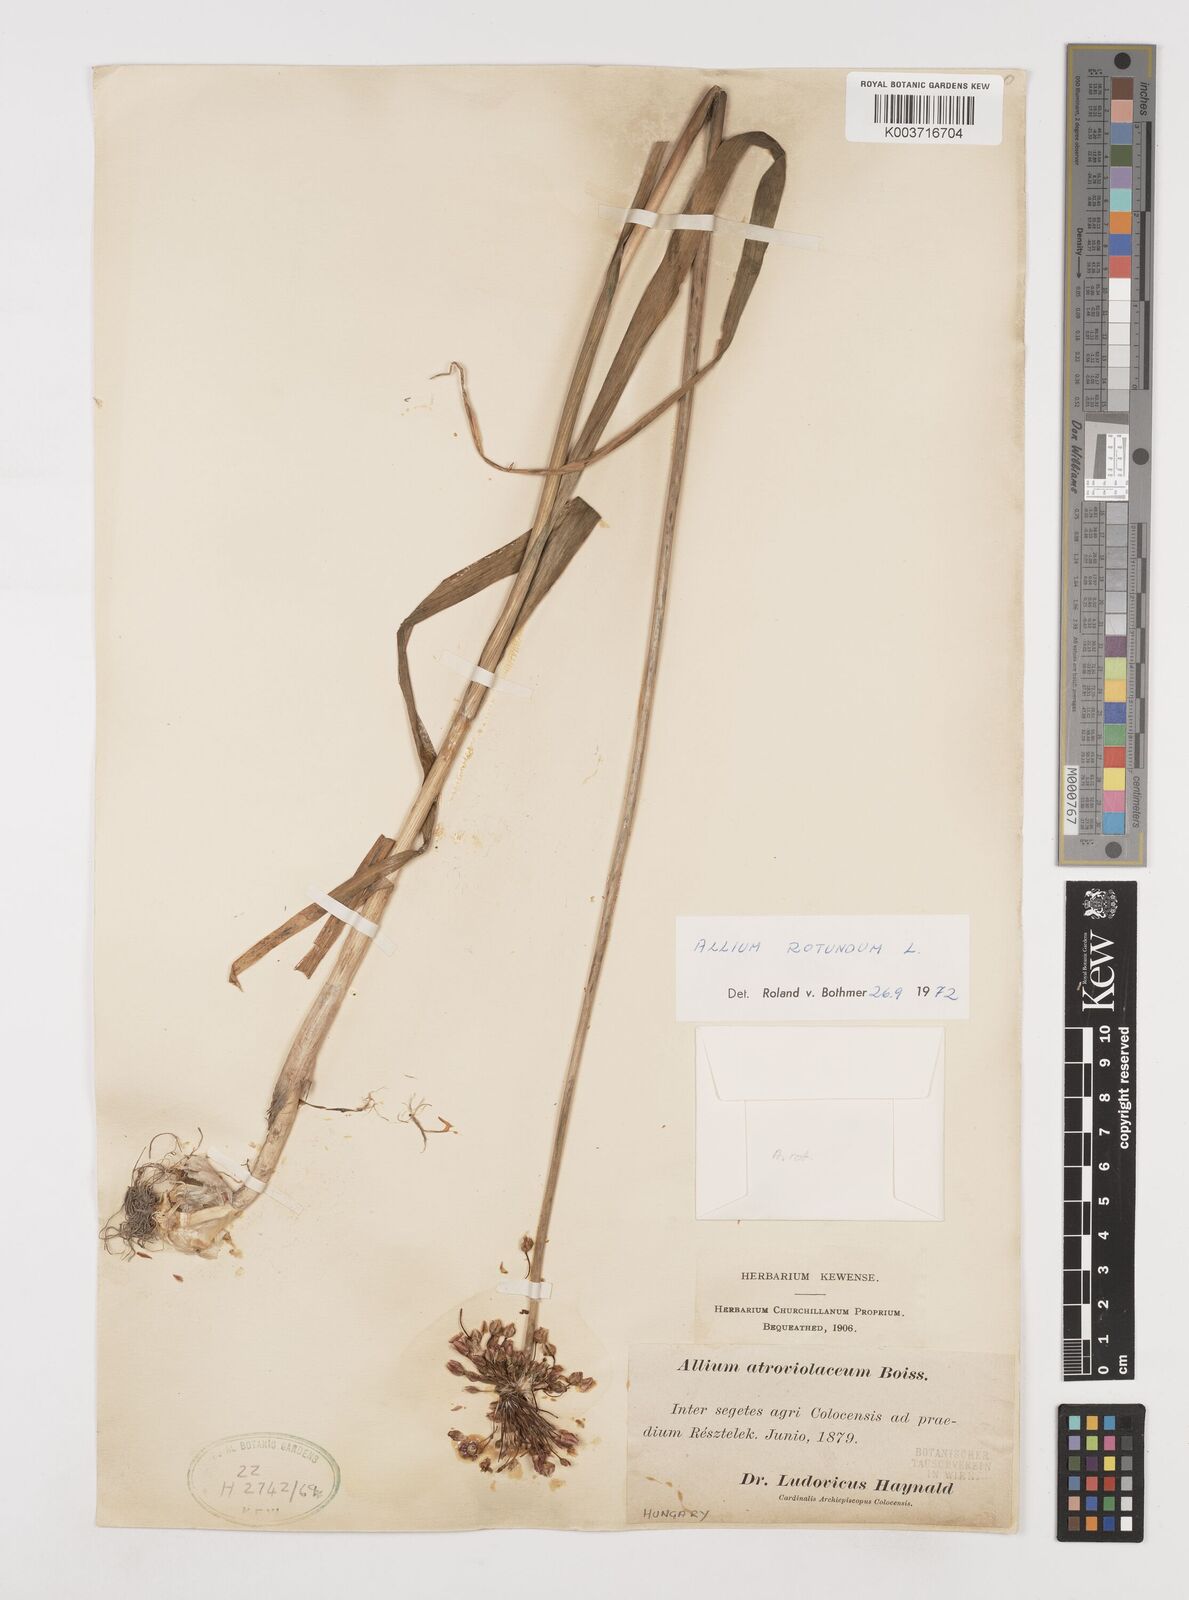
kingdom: Plantae
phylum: Tracheophyta
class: Liliopsida
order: Asparagales
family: Amaryllidaceae
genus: Allium
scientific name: Allium rotundum
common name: Sand leek
